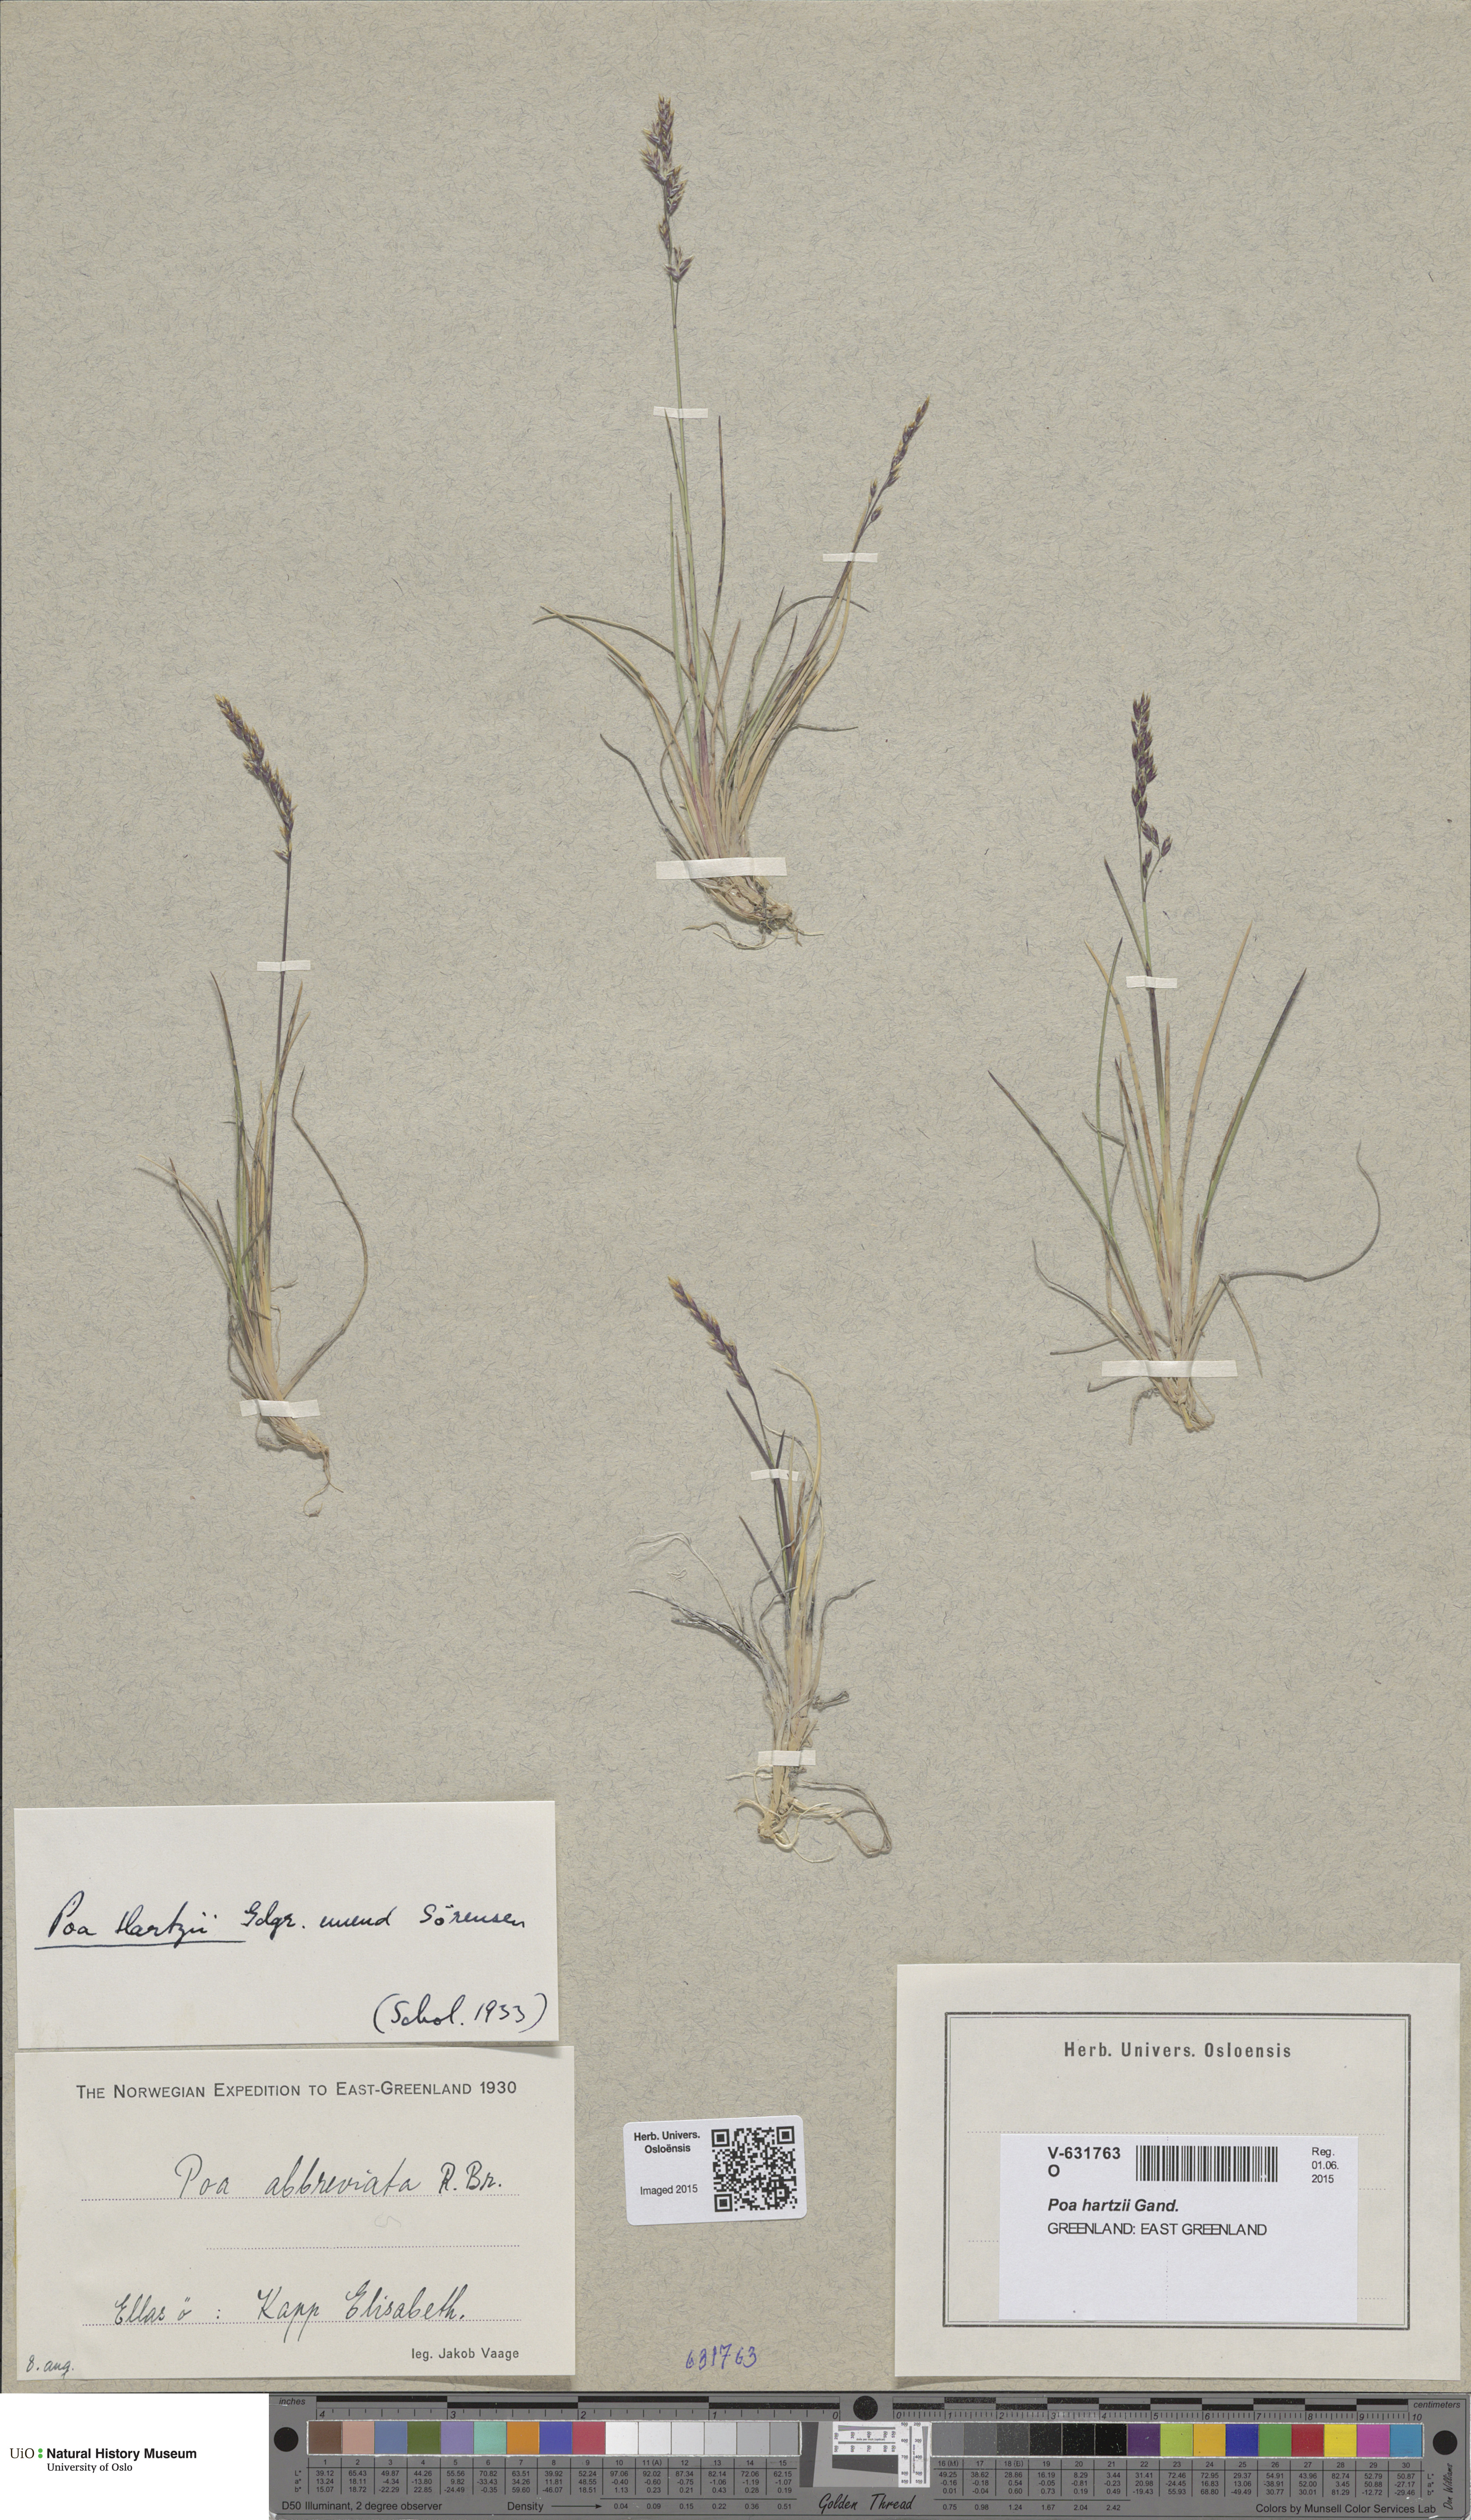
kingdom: Plantae
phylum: Tracheophyta
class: Liliopsida
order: Poales
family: Poaceae
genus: Poa
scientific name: Poa hartzii
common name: Hartz's bluegrass
